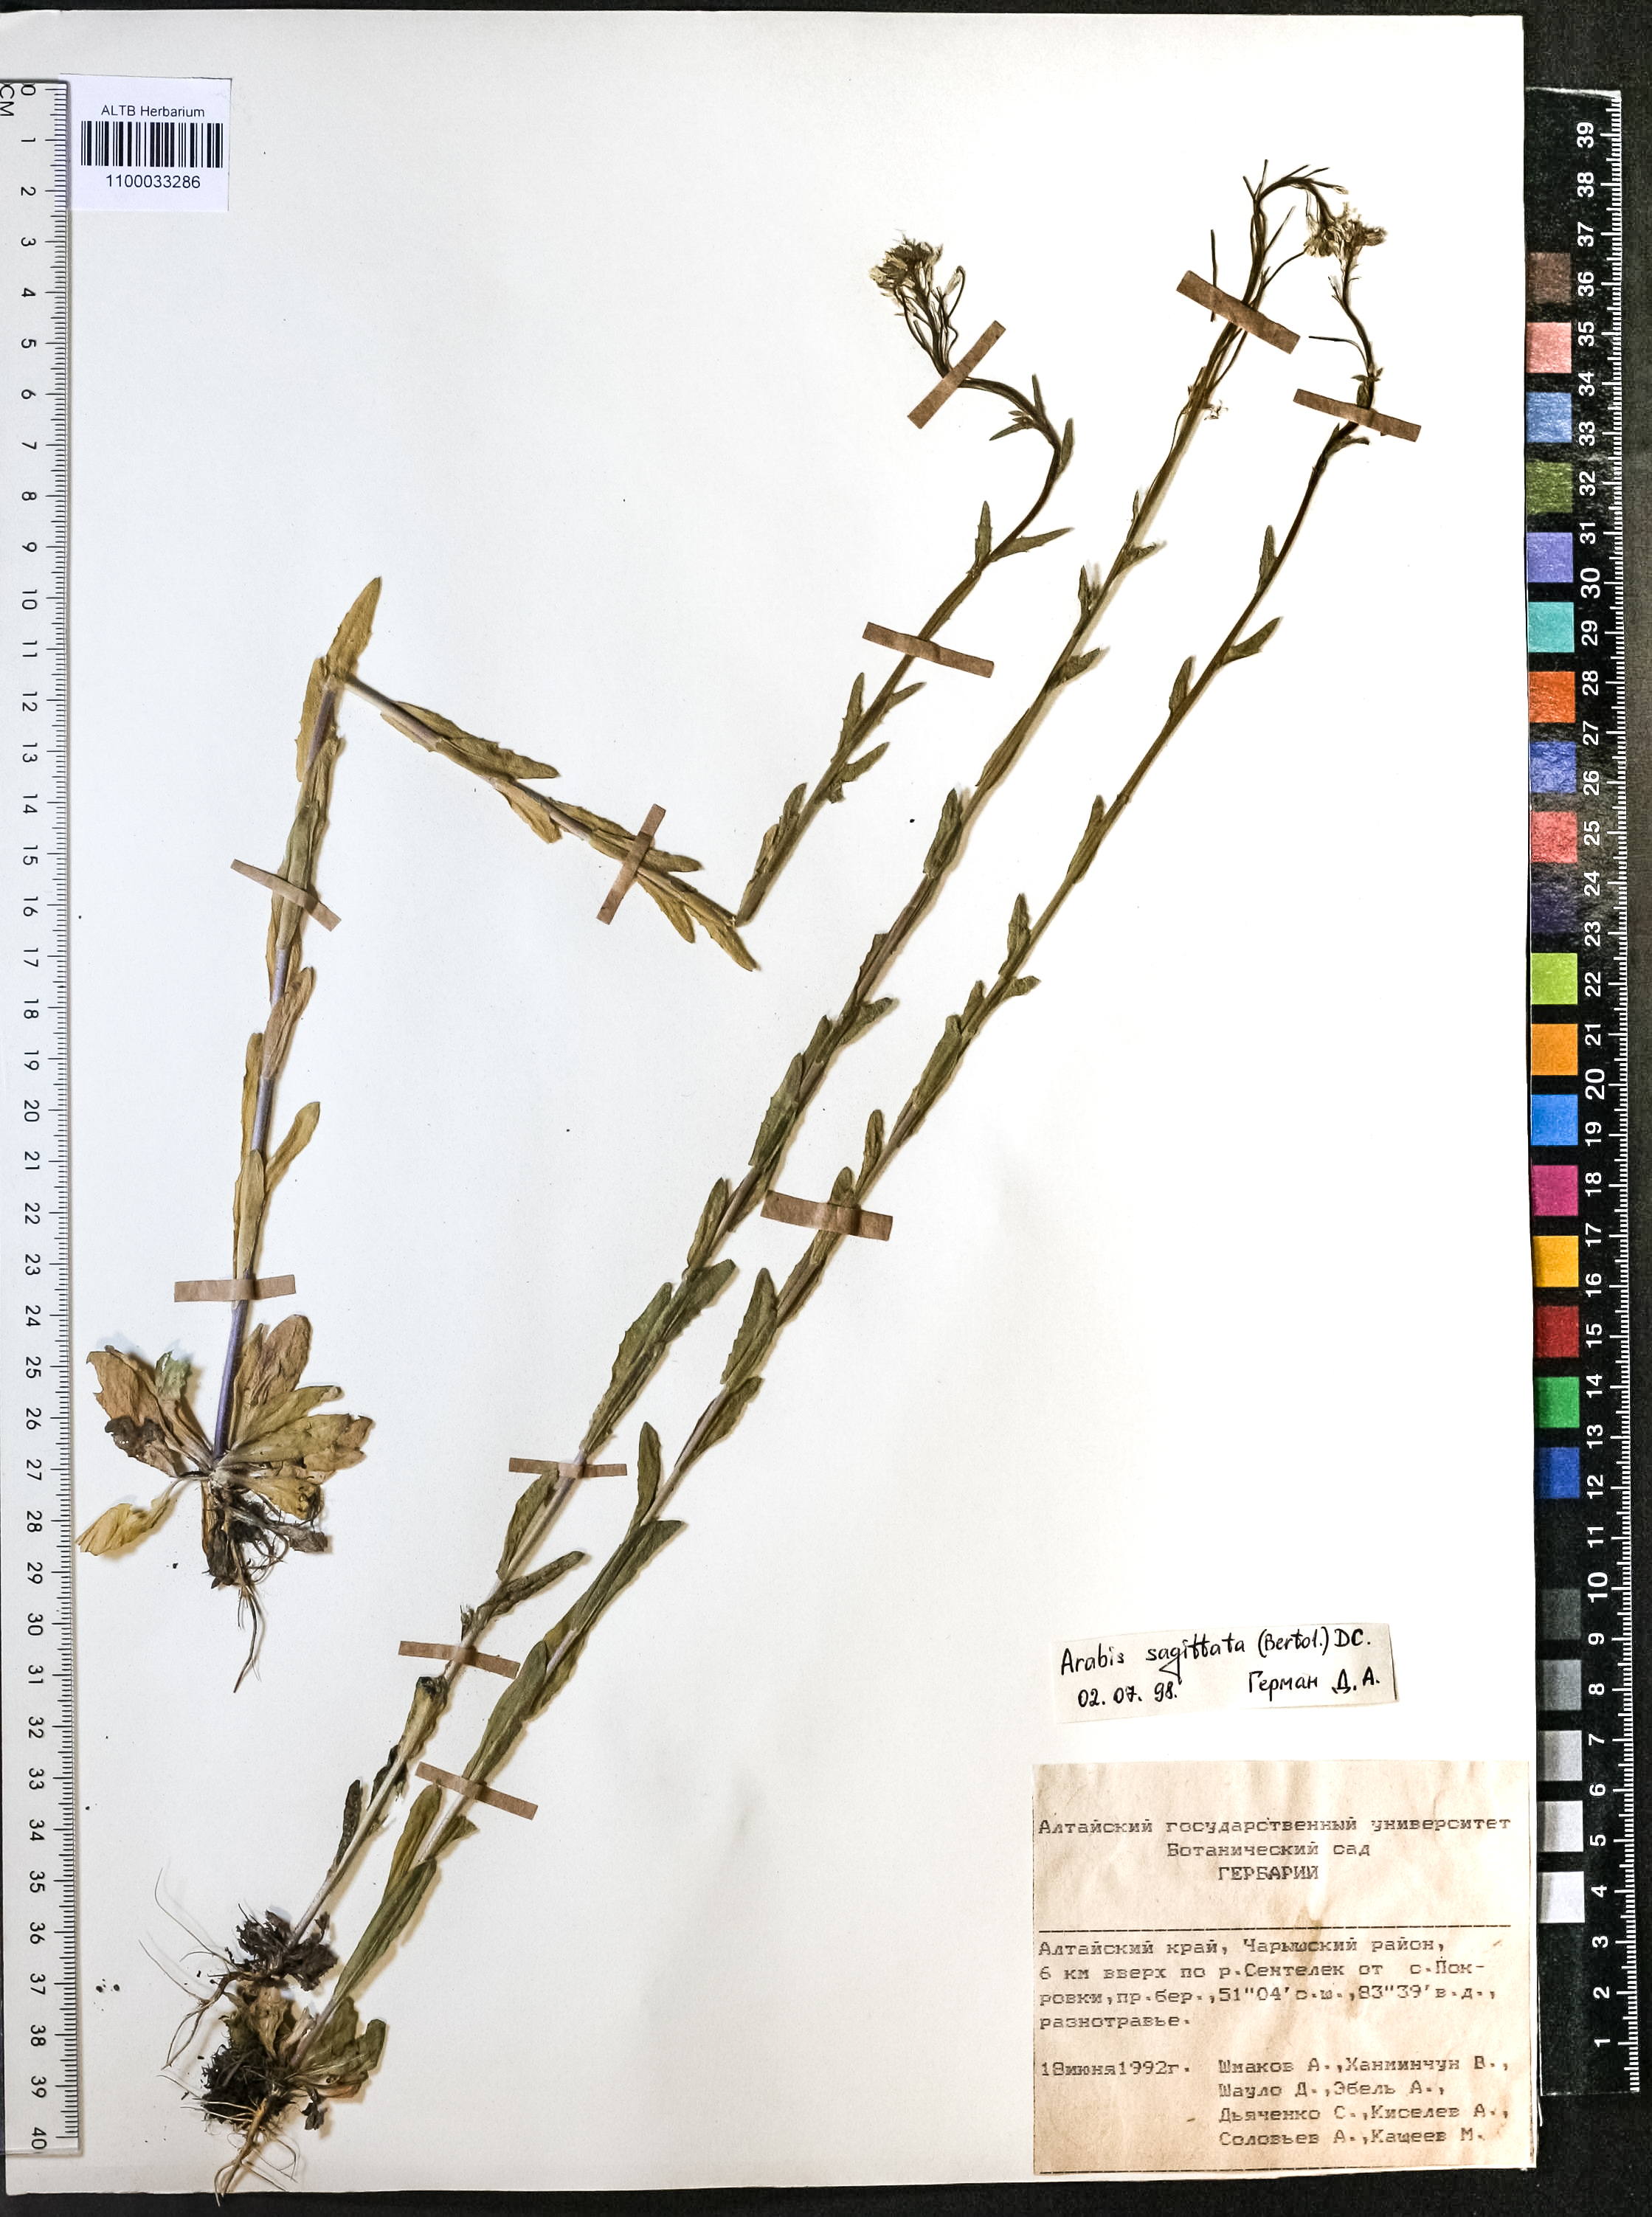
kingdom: Plantae
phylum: Tracheophyta
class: Magnoliopsida
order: Brassicales
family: Brassicaceae
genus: Arabis
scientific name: Arabis sagittata
